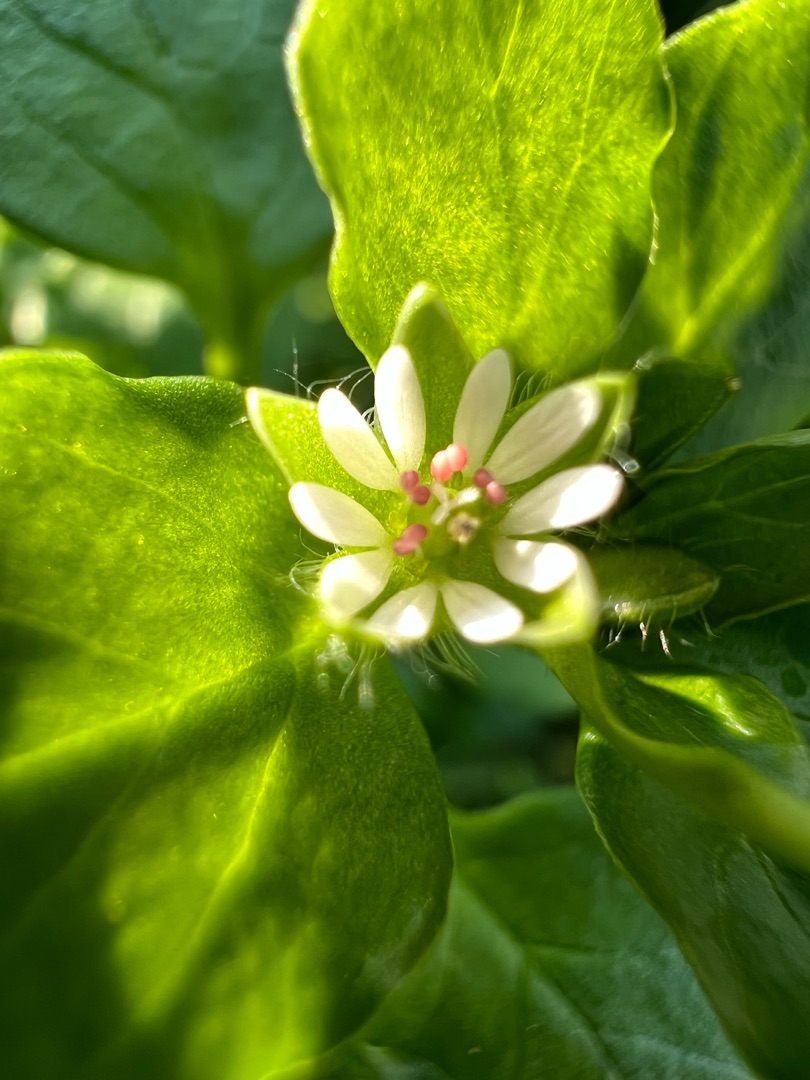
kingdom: Plantae
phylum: Tracheophyta
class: Magnoliopsida
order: Caryophyllales
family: Caryophyllaceae
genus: Stellaria
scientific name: Stellaria media
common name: Almindelig fuglegræs
